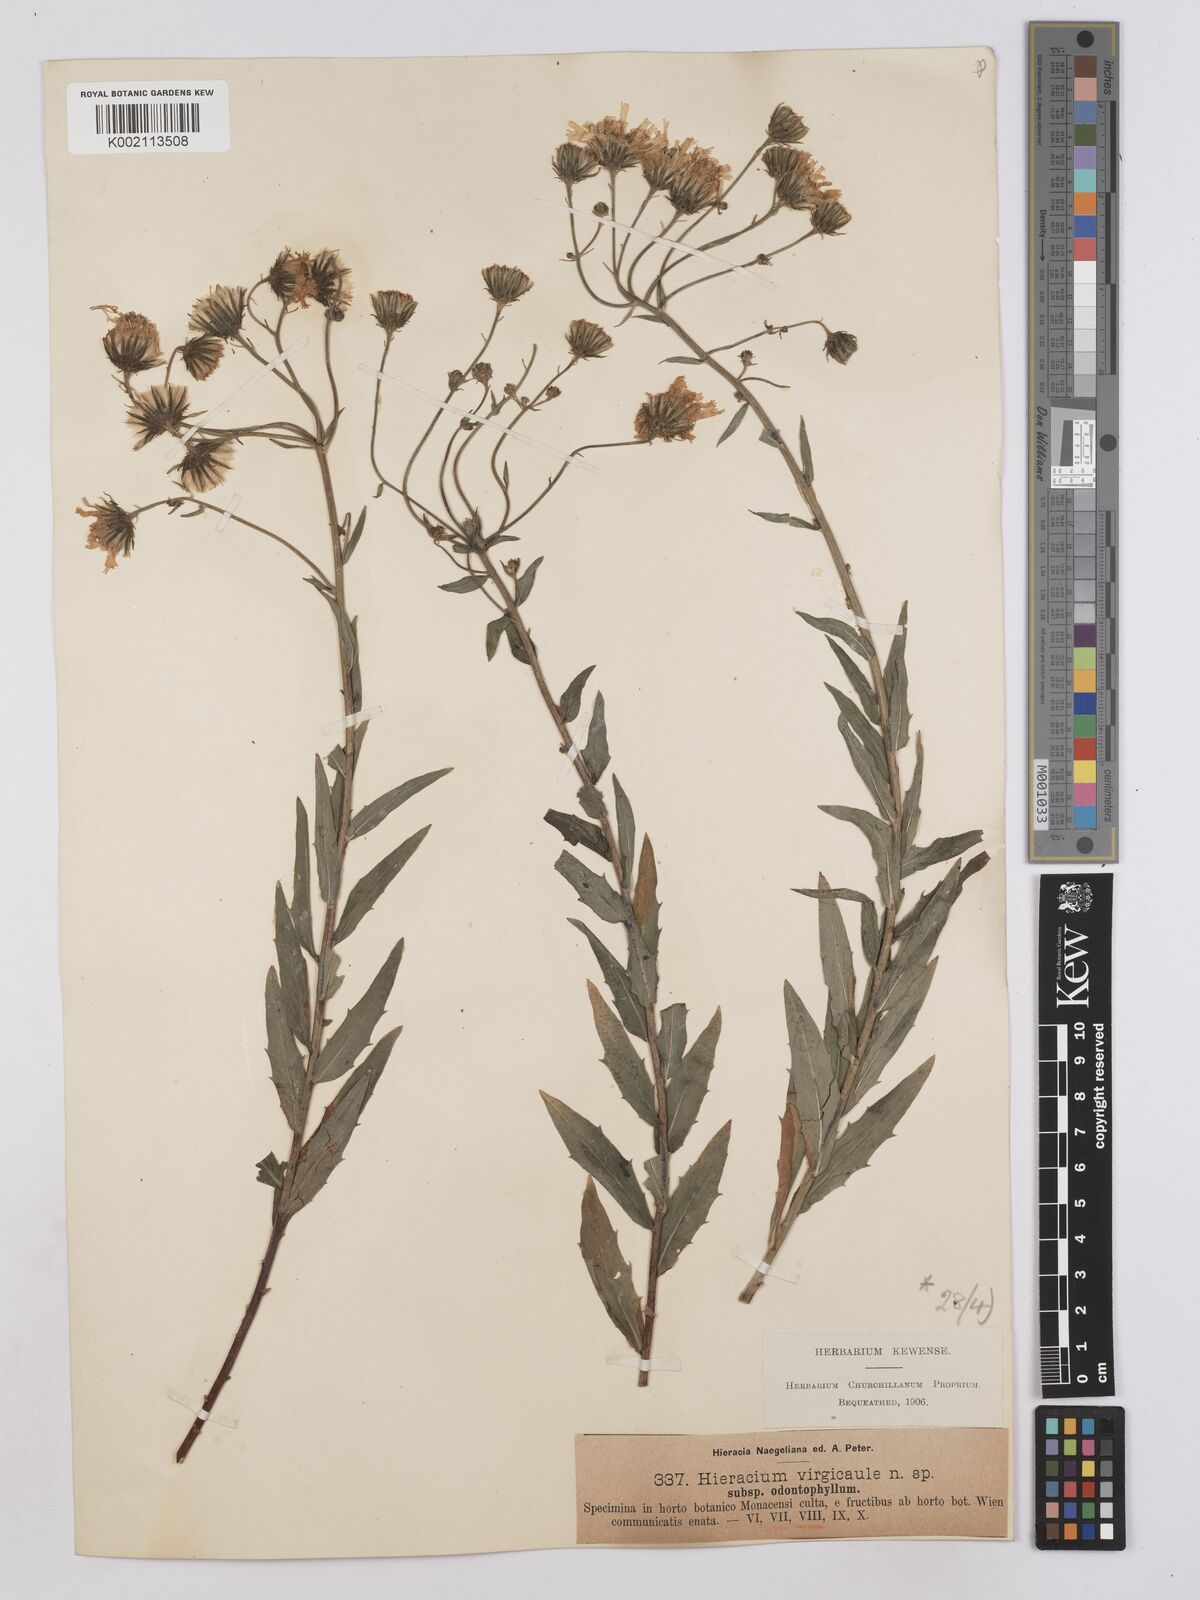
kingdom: Plantae
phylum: Tracheophyta
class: Magnoliopsida
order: Asterales
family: Asteraceae
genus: Hieracium
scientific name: Hieracium virgicaule
